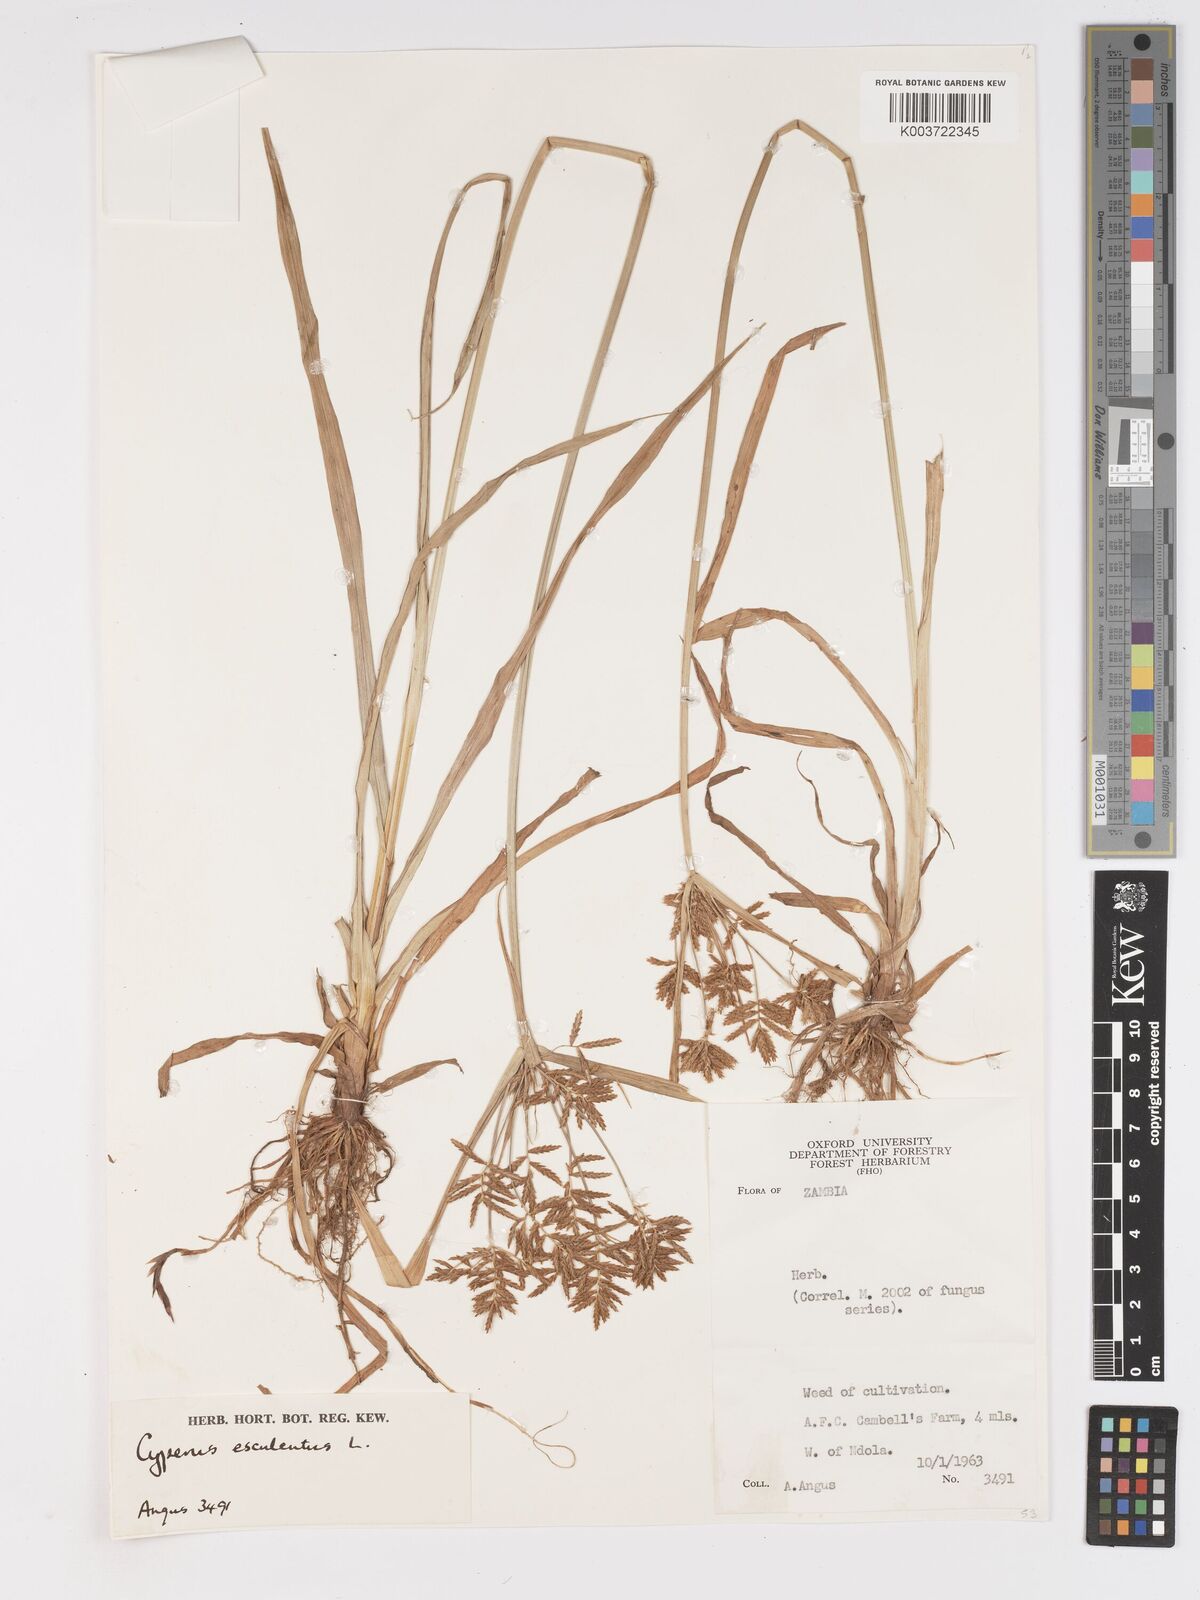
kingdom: Plantae
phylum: Tracheophyta
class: Liliopsida
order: Poales
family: Cyperaceae
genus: Cyperus
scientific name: Cyperus esculentus
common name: Yellow nutsedge
